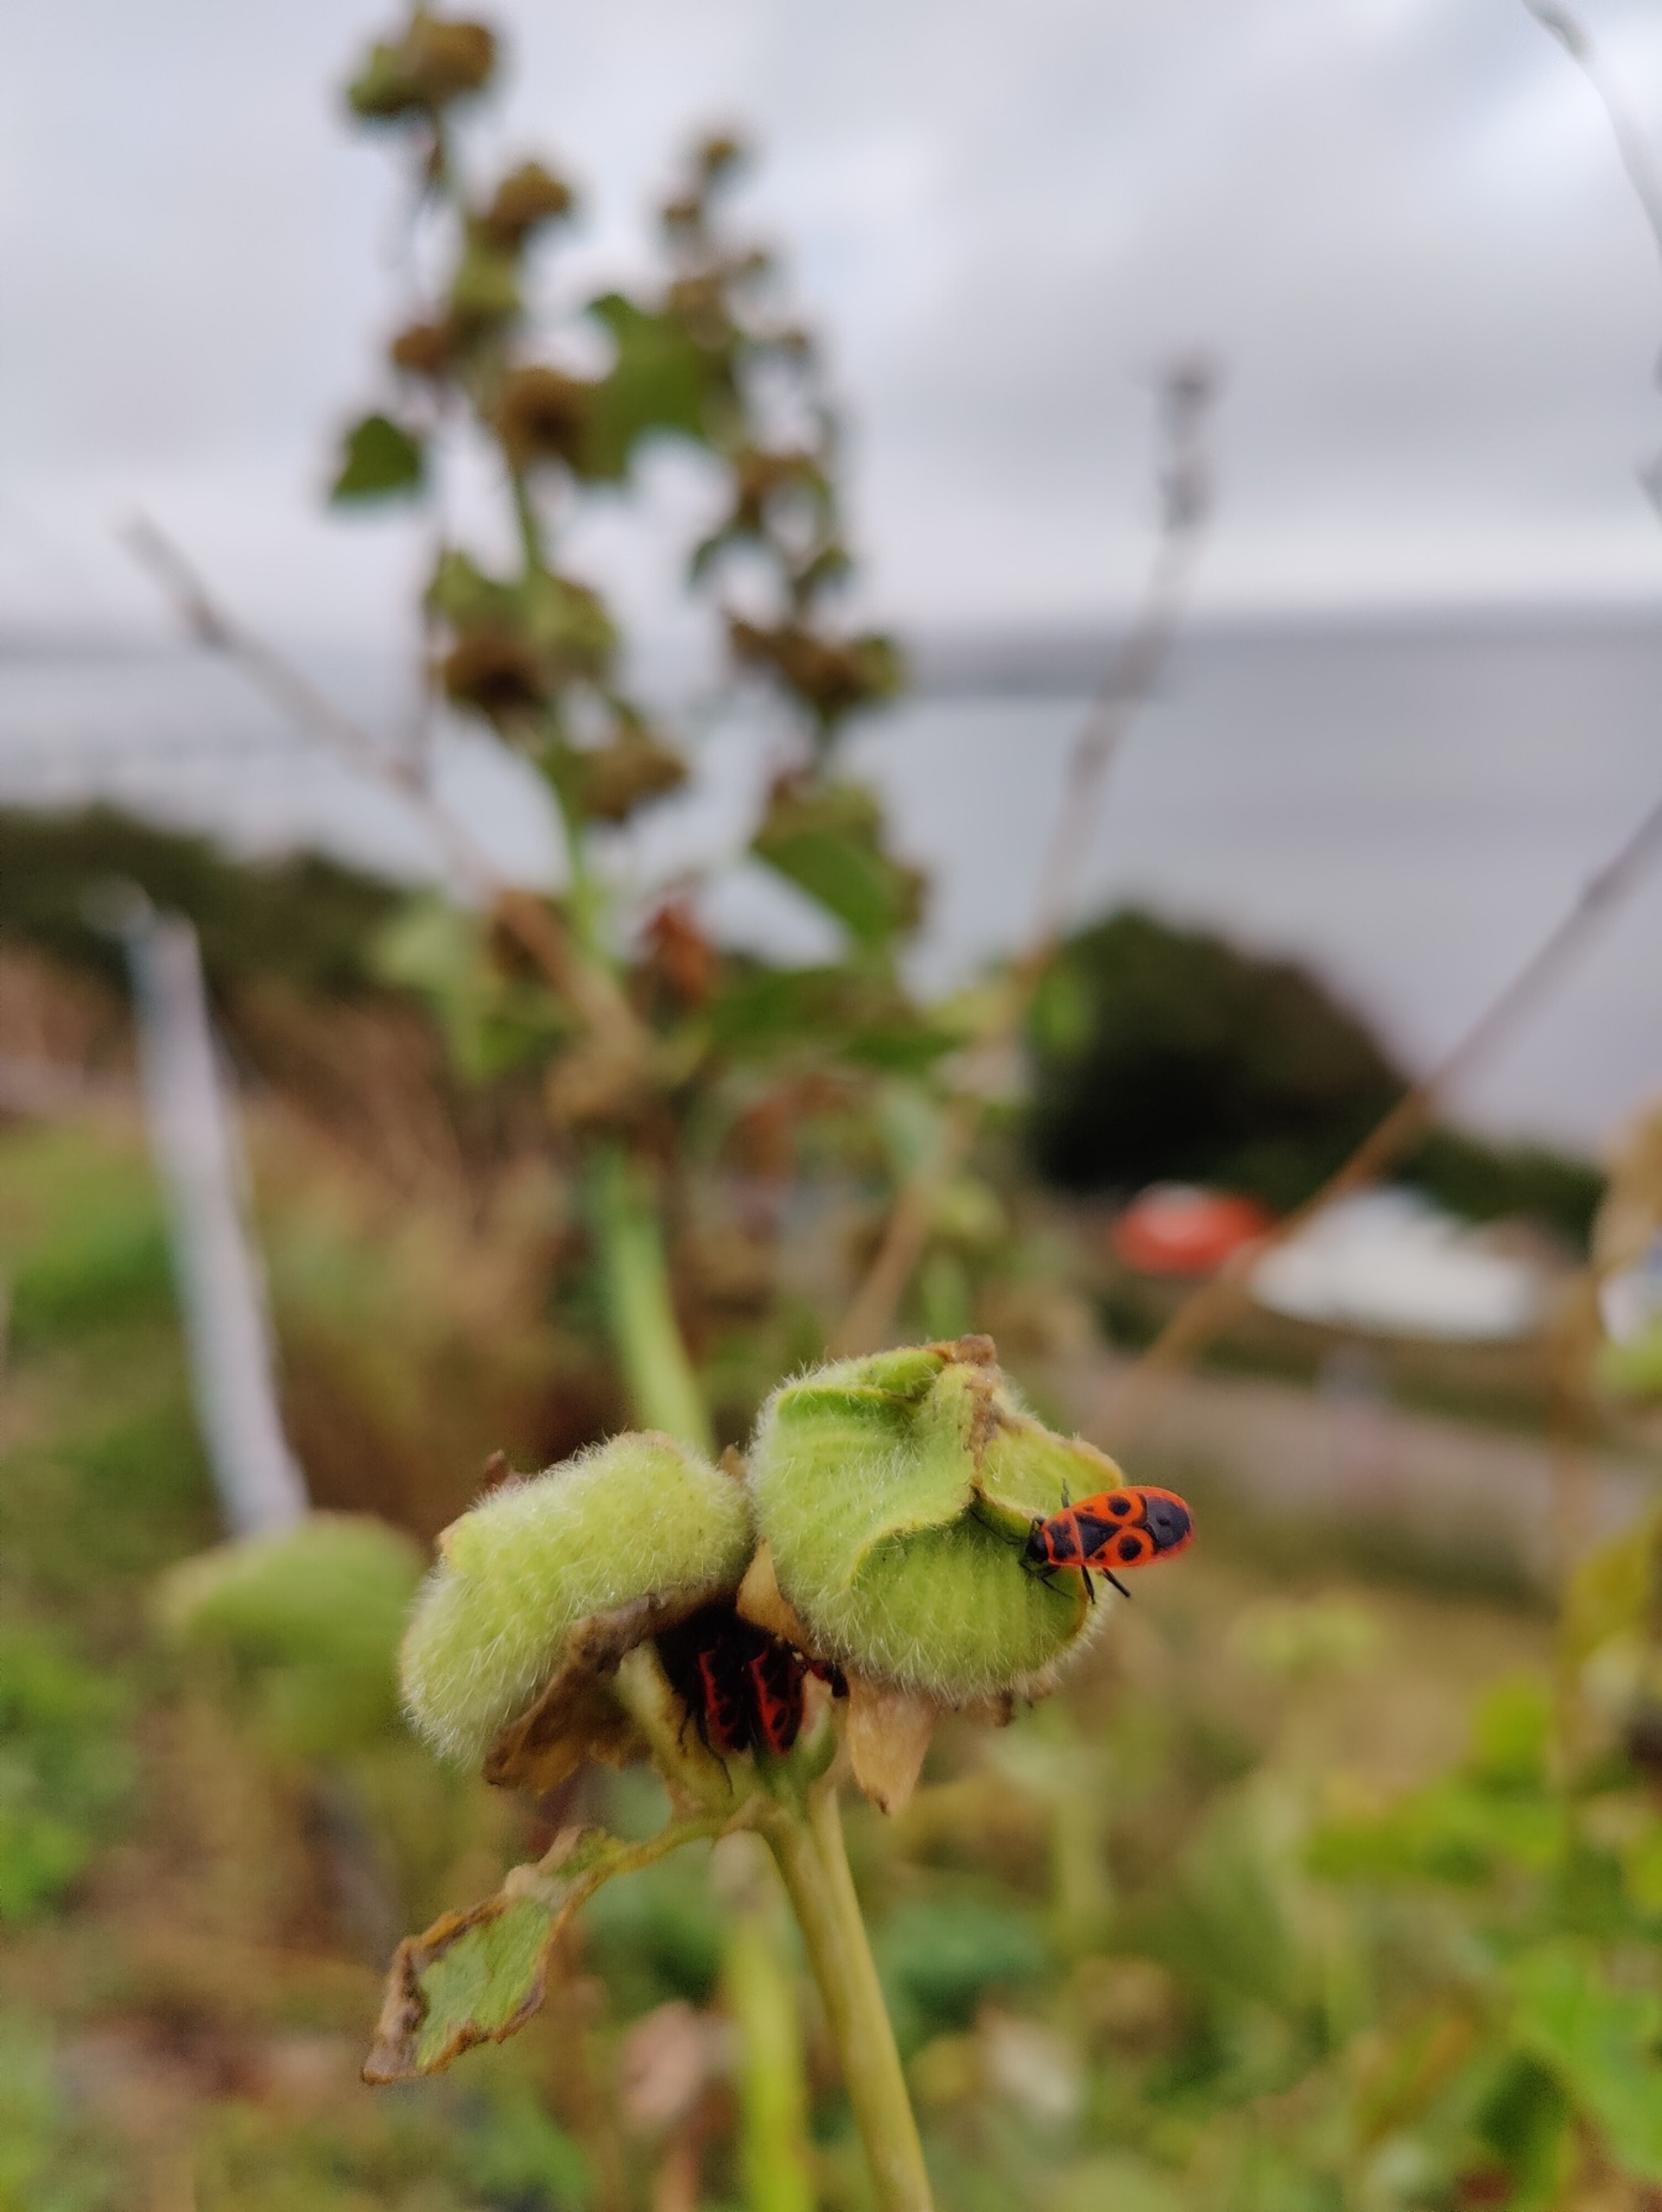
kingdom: Animalia
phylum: Arthropoda
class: Insecta
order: Hemiptera
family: Pyrrhocoridae
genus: Pyrrhocoris
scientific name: Pyrrhocoris apterus
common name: Ildtæge
